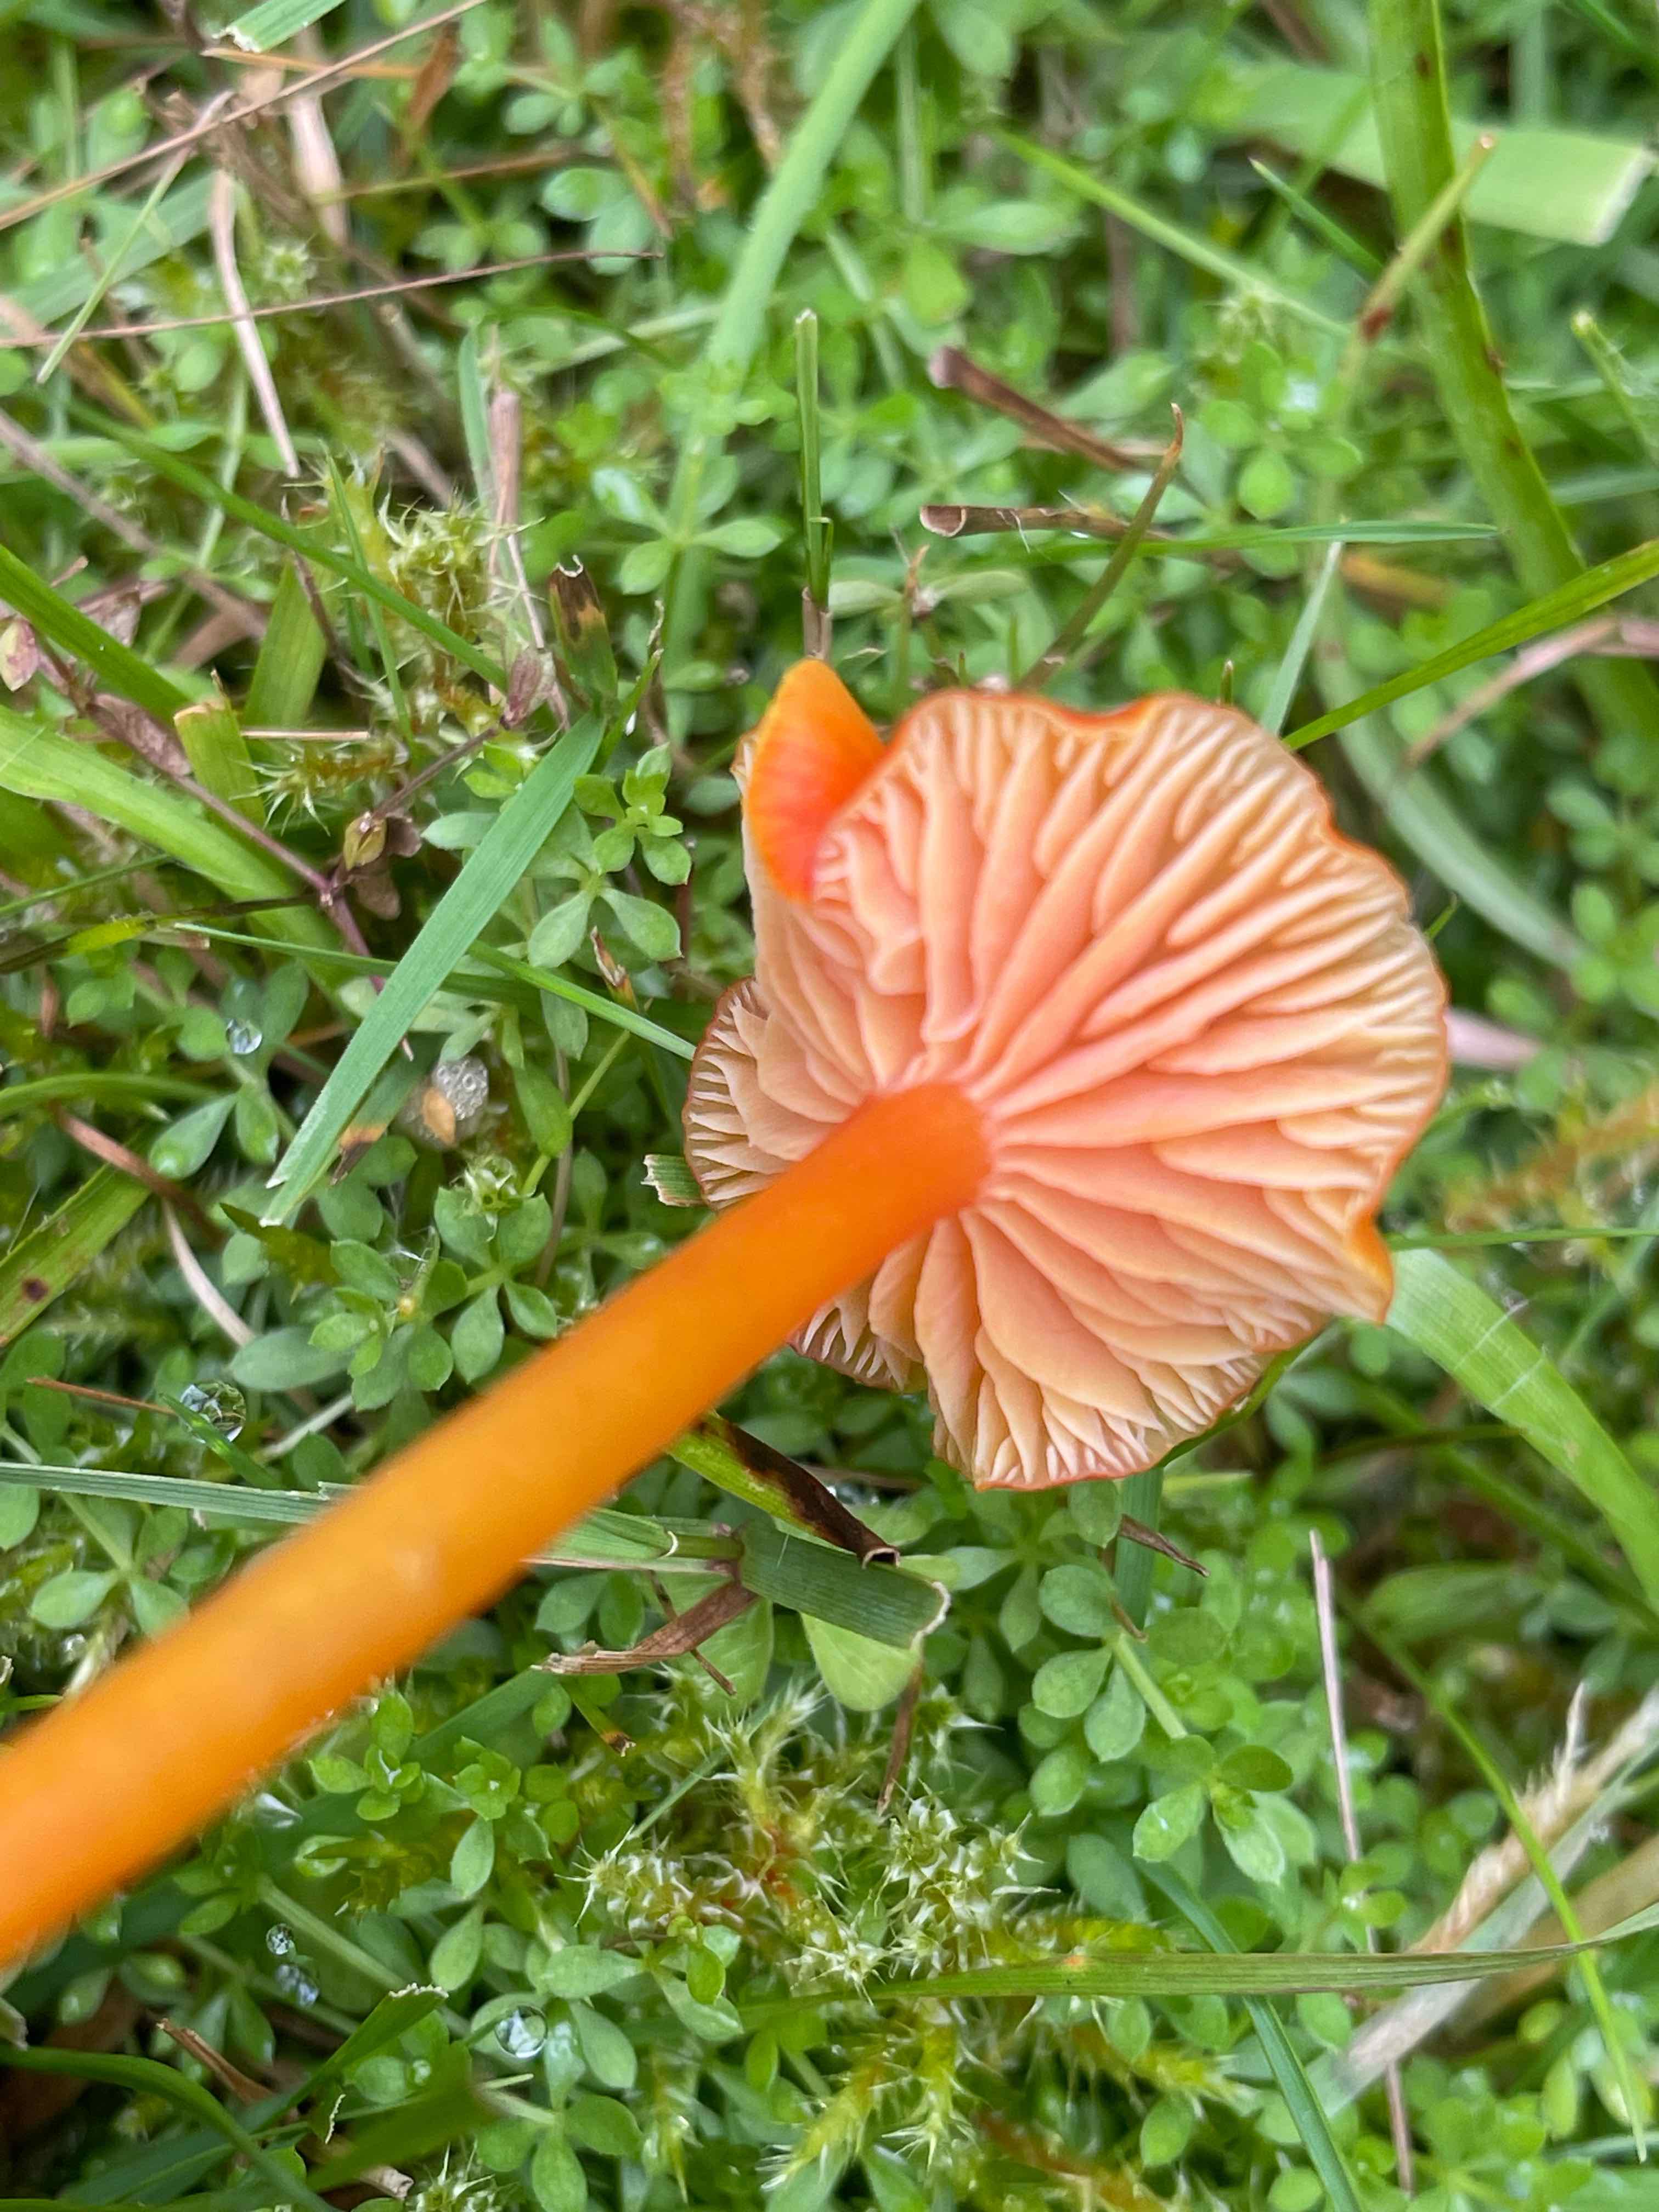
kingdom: Fungi
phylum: Basidiomycota
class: Agaricomycetes
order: Agaricales
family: Hygrophoraceae
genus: Hygrocybe
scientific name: Hygrocybe
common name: vokshat
